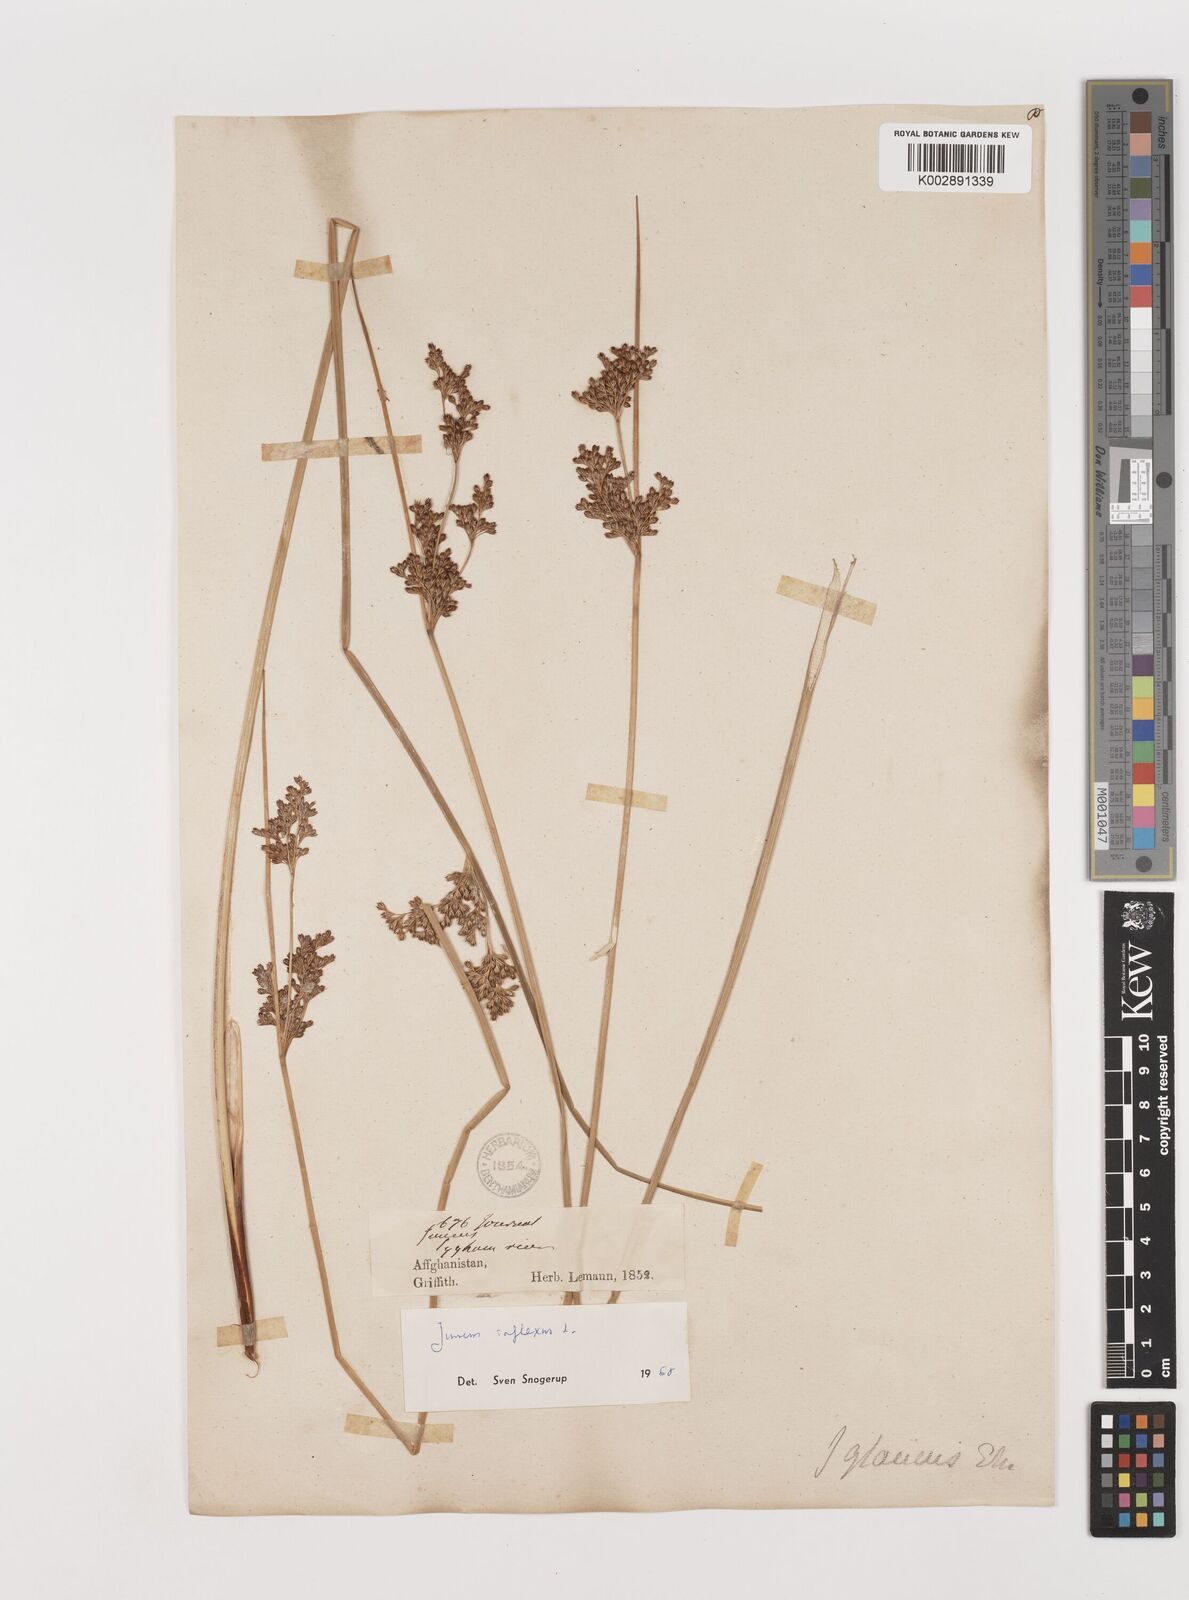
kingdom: Plantae
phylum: Tracheophyta
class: Liliopsida
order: Poales
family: Juncaceae
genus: Juncus
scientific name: Juncus inflexus
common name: Hard rush
